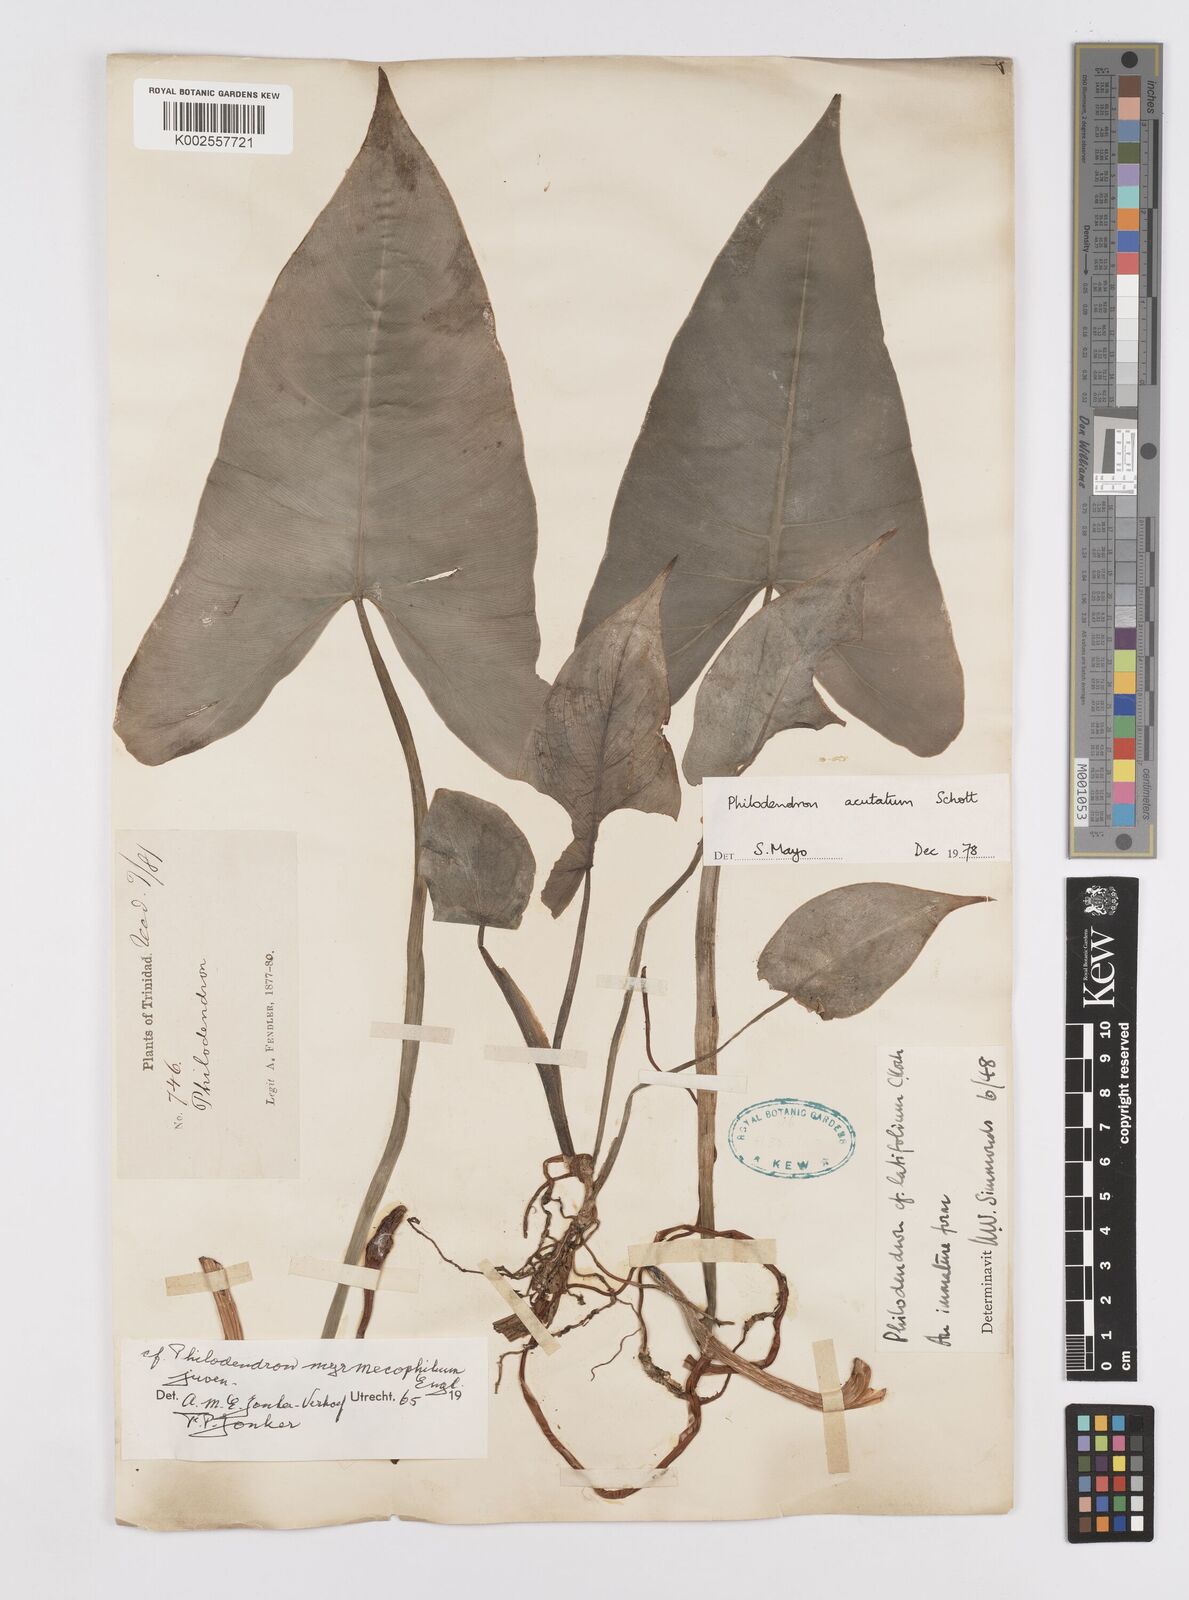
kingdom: Plantae
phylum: Tracheophyta
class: Liliopsida
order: Alismatales
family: Araceae
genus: Philodendron
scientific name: Philodendron quinquenervium
